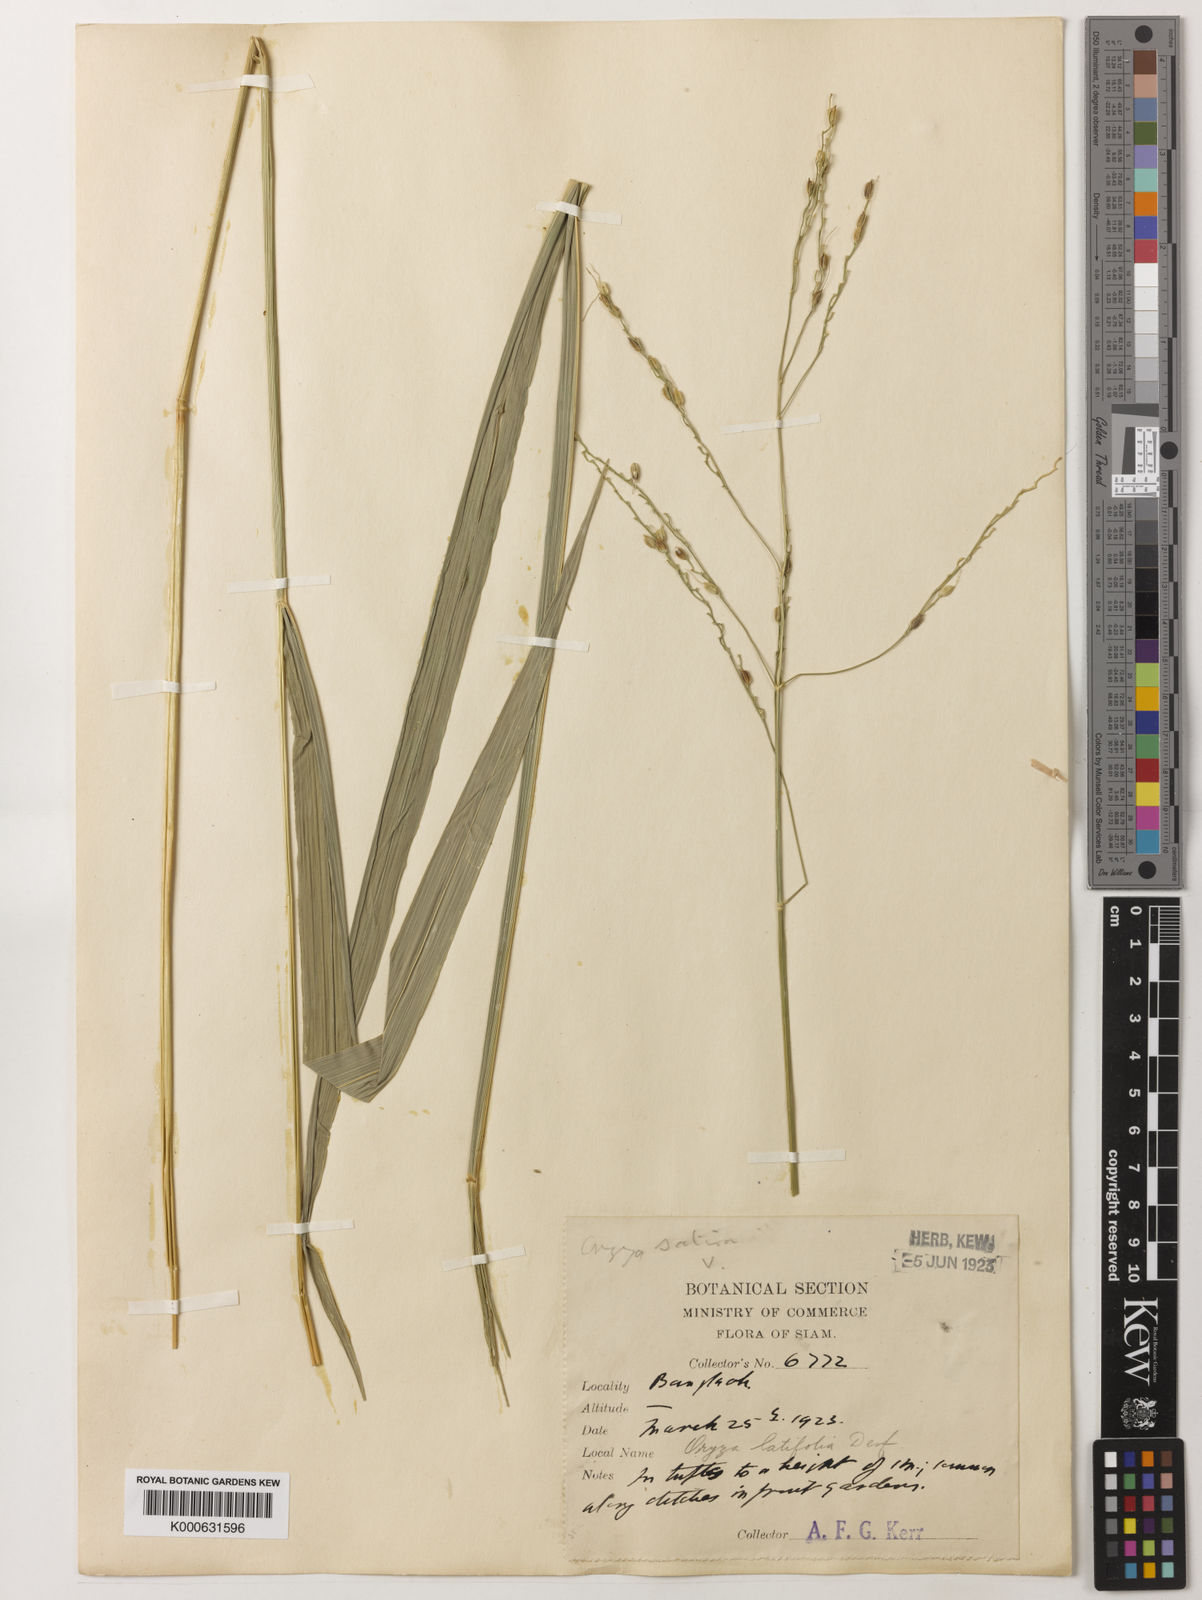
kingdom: Plantae
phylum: Tracheophyta
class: Liliopsida
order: Poales
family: Poaceae
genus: Oryza
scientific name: Oryza minuta
